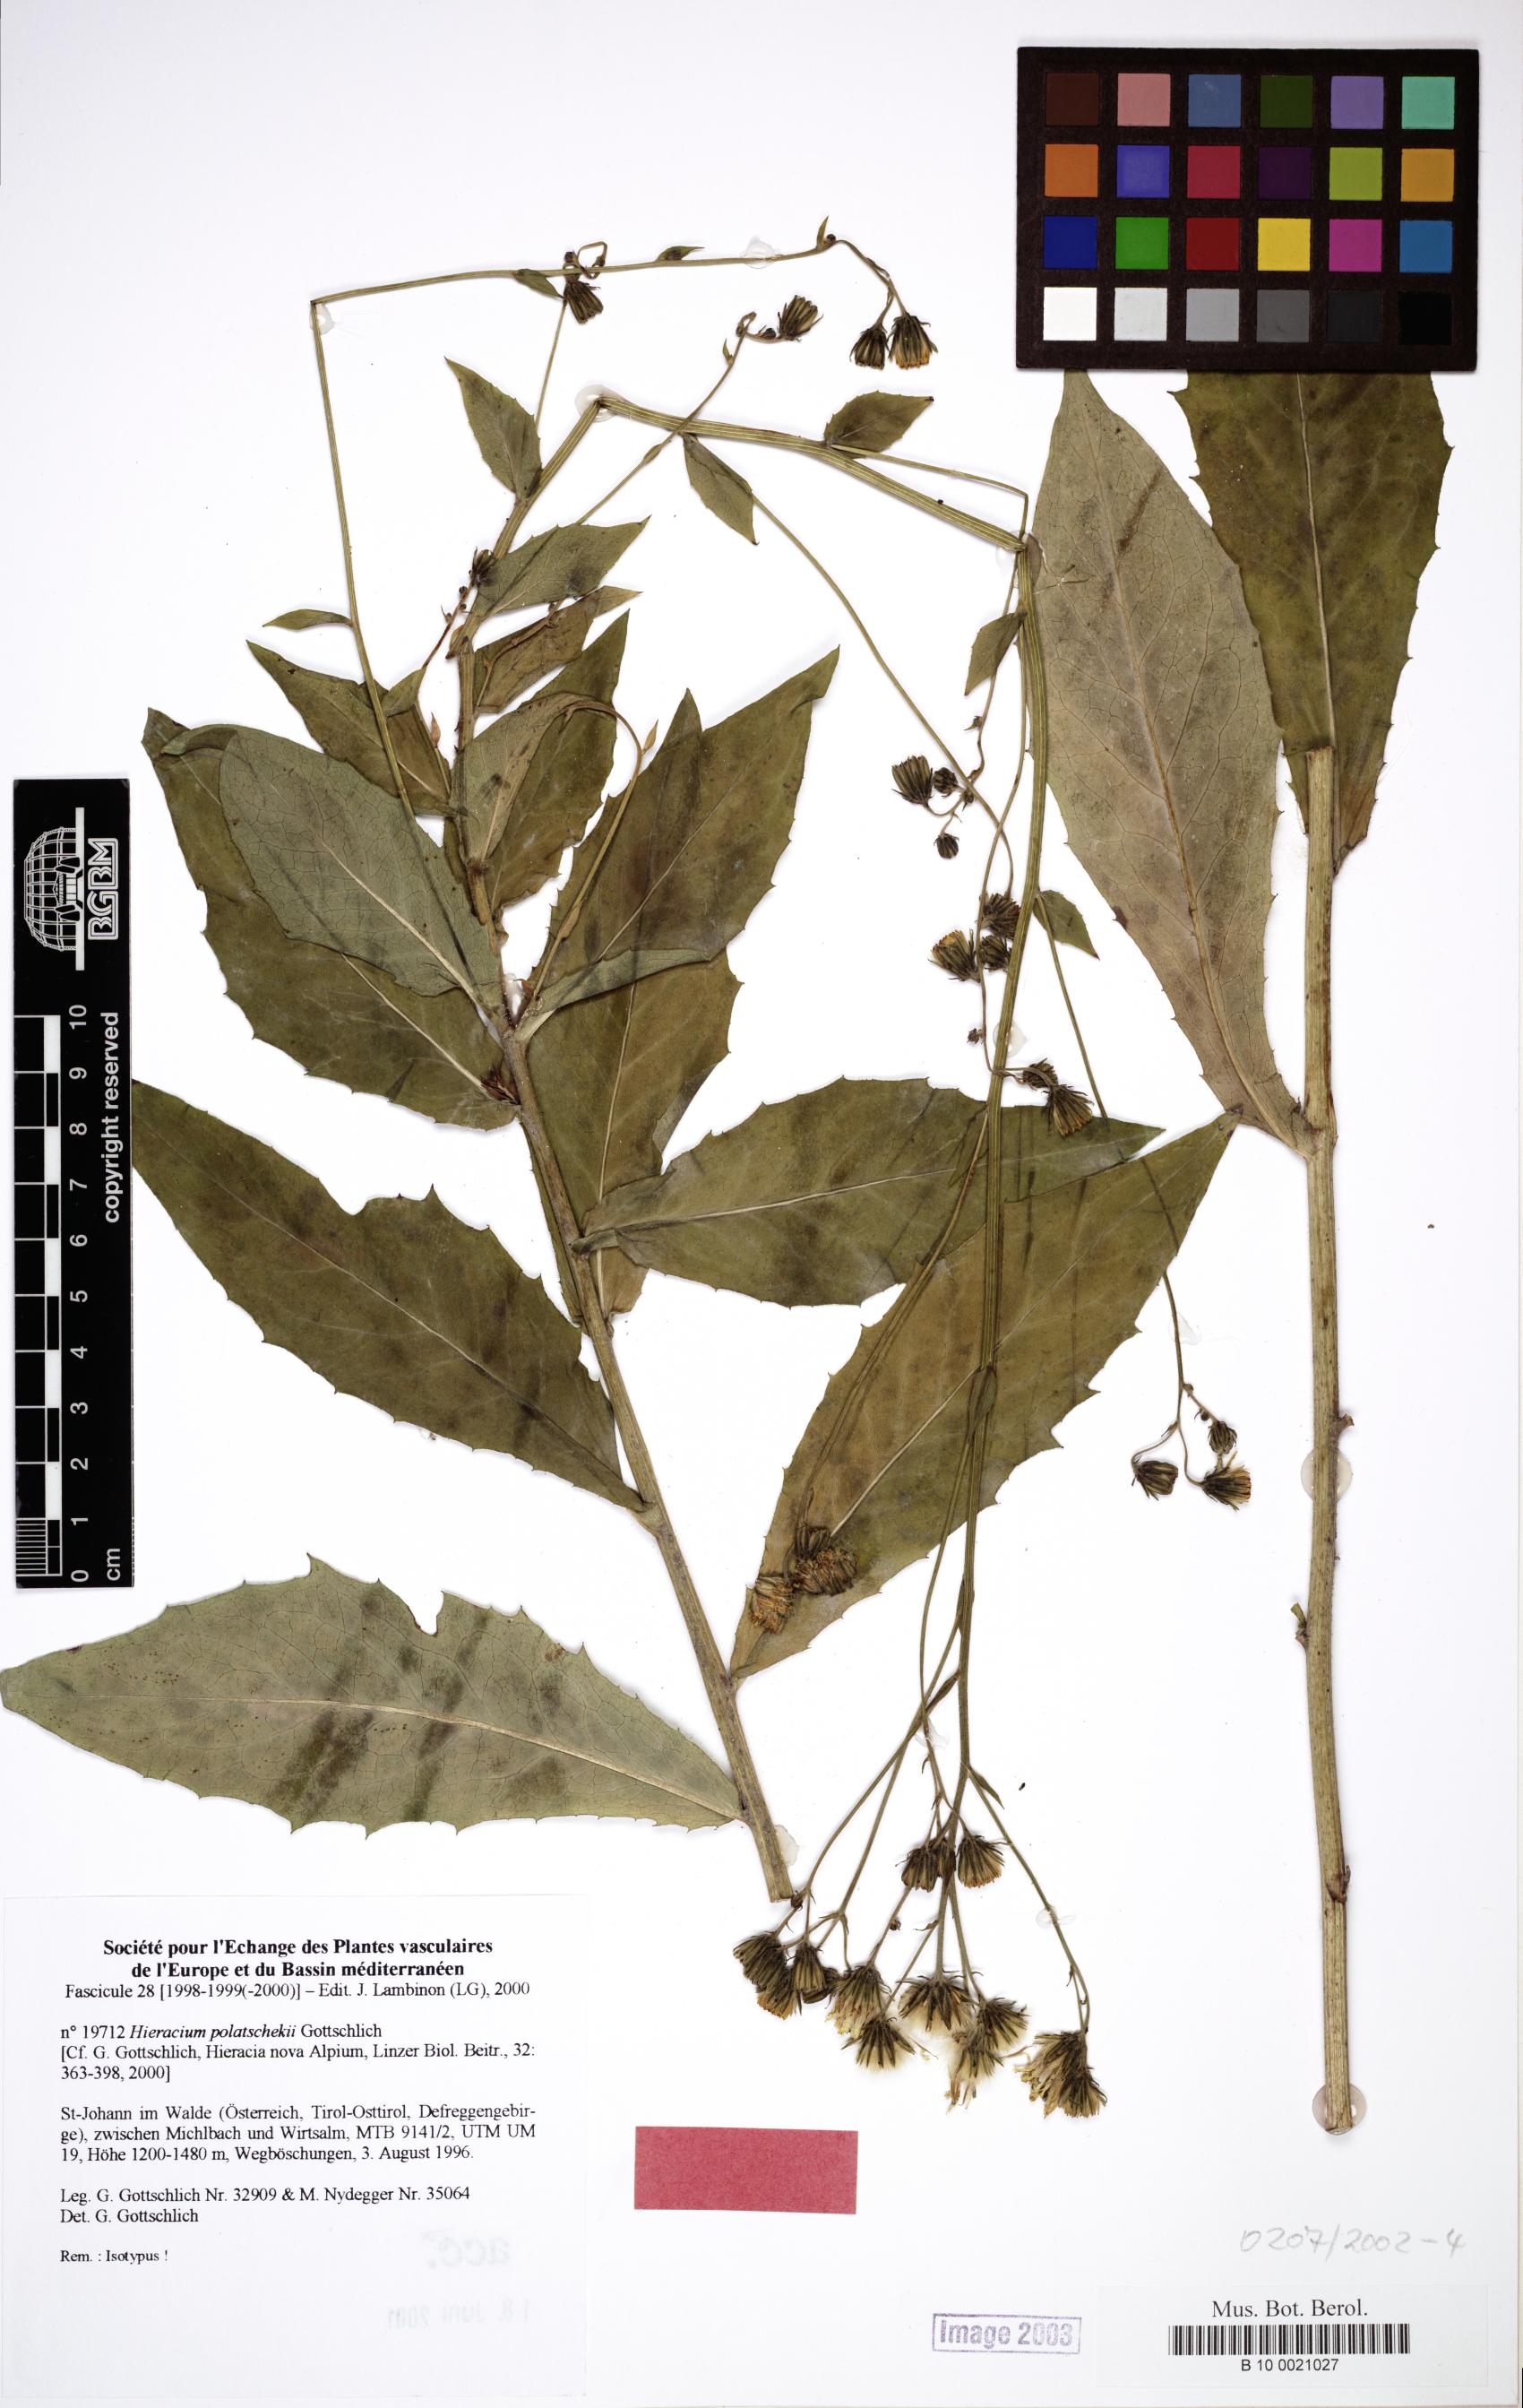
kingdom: Plantae
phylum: Tracheophyta
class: Magnoliopsida
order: Asterales
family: Asteraceae
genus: Hieracium
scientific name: Hieracium polatschekii
